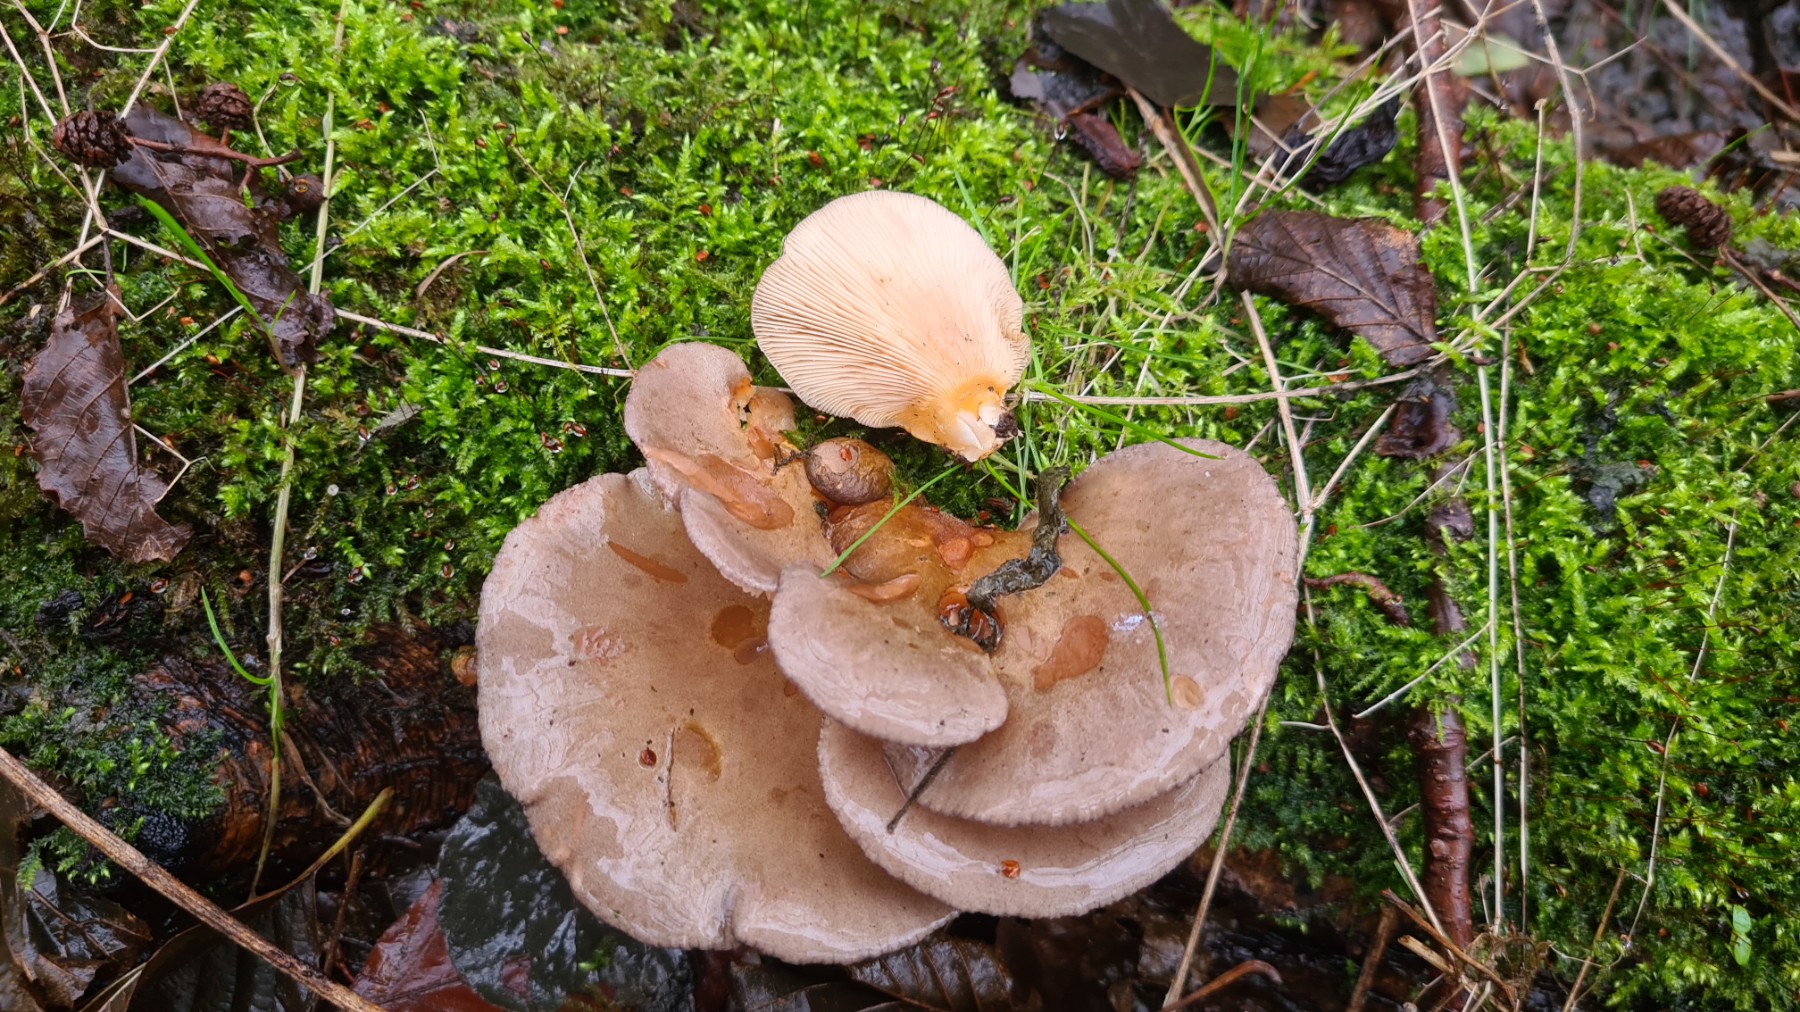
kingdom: Fungi
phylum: Basidiomycota
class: Agaricomycetes
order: Agaricales
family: Sarcomyxaceae
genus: Sarcomyxa
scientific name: Sarcomyxa serotina
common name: gummihat
